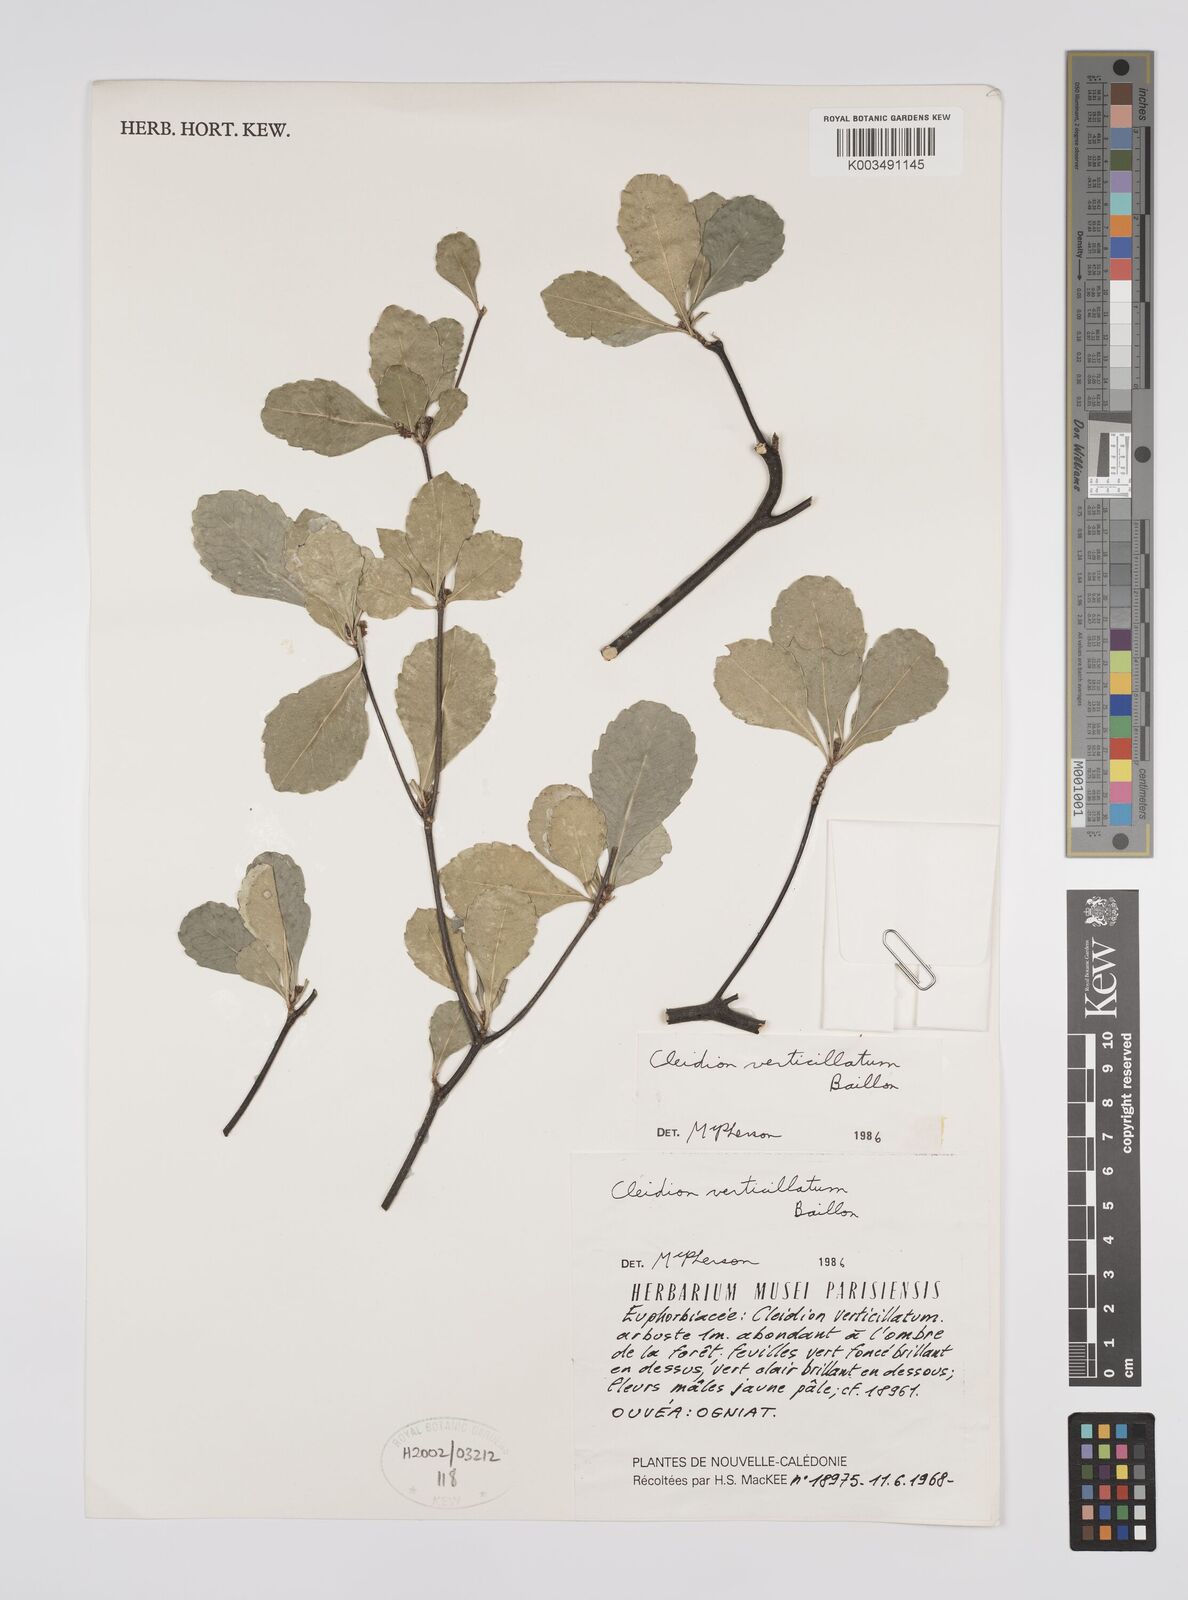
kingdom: Plantae
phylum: Tracheophyta
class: Magnoliopsida
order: Malpighiales
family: Euphorbiaceae
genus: Cleidion
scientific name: Cleidion verticillatum
